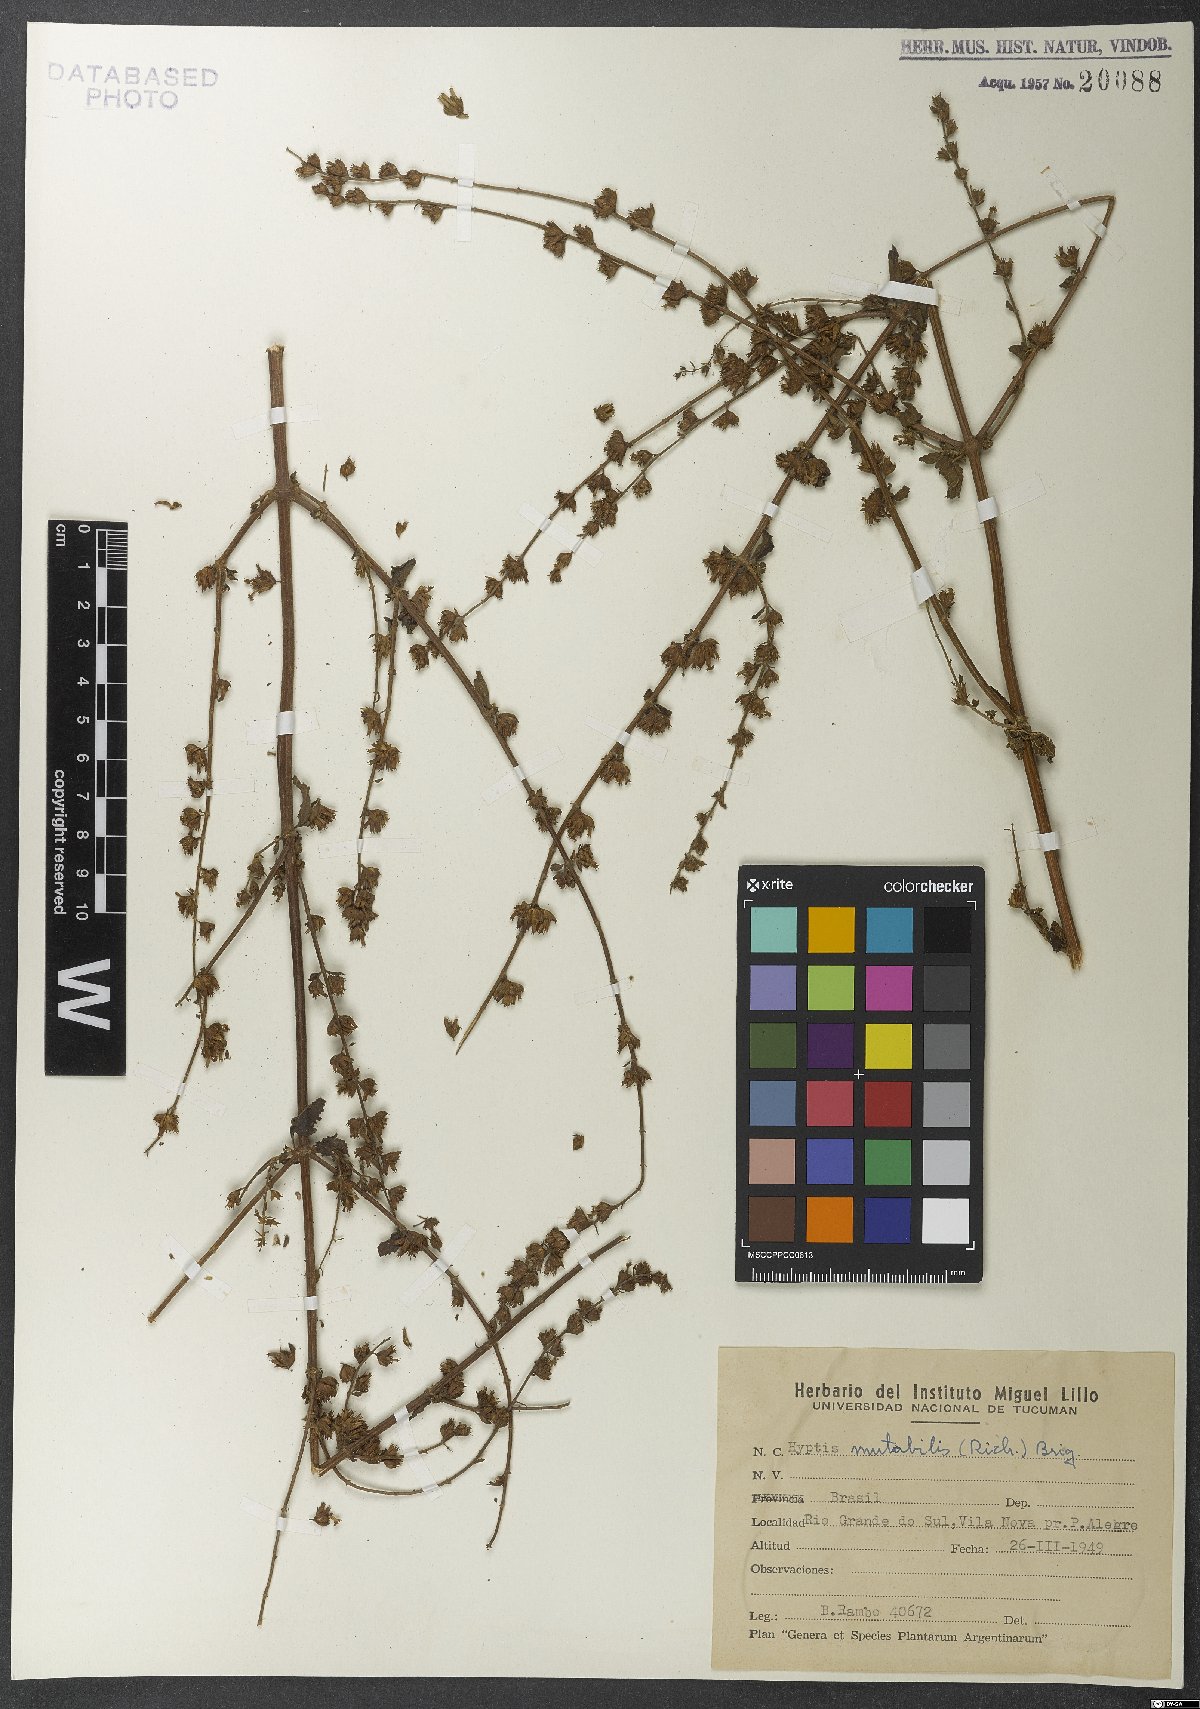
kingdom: Plantae
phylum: Tracheophyta
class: Magnoliopsida
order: Lamiales
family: Lamiaceae
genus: Cantinoa
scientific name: Cantinoa mutabilis
